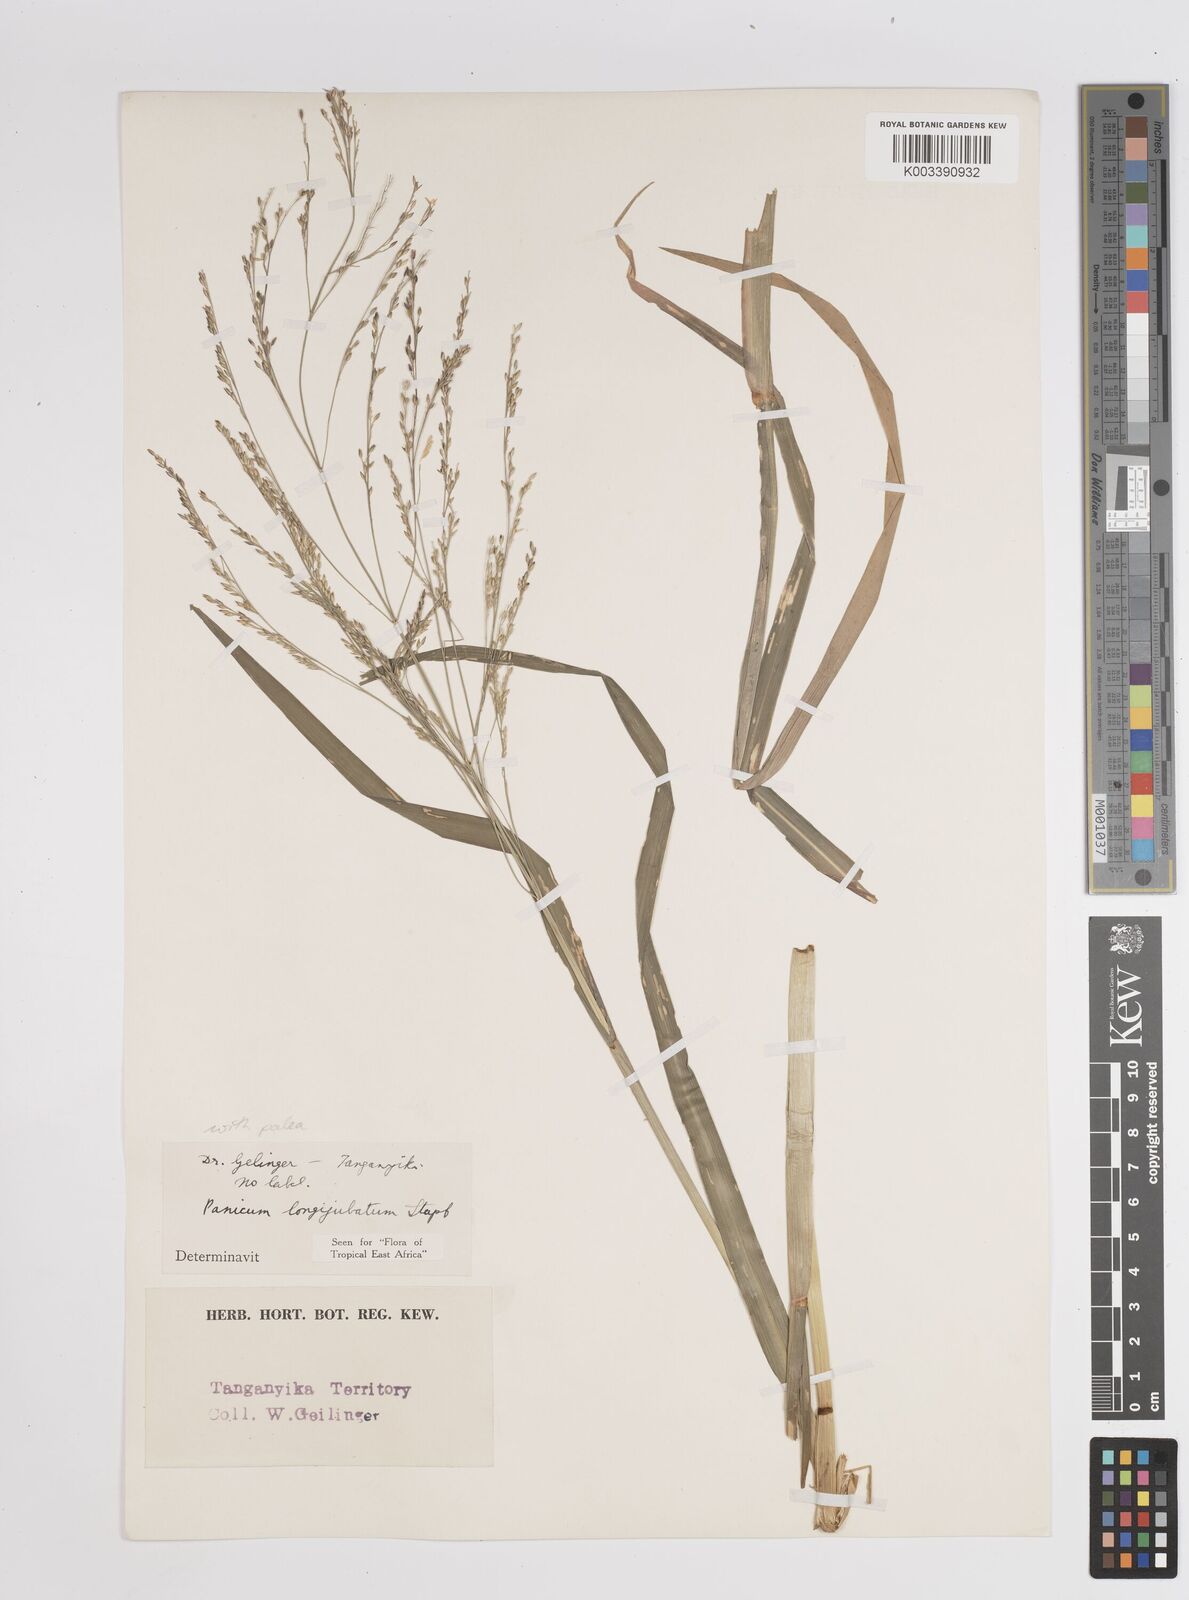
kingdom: Plantae
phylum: Tracheophyta
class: Liliopsida
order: Poales
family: Poaceae
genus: Panicum
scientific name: Panicum subalbidum
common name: Elbow buffalo grass
